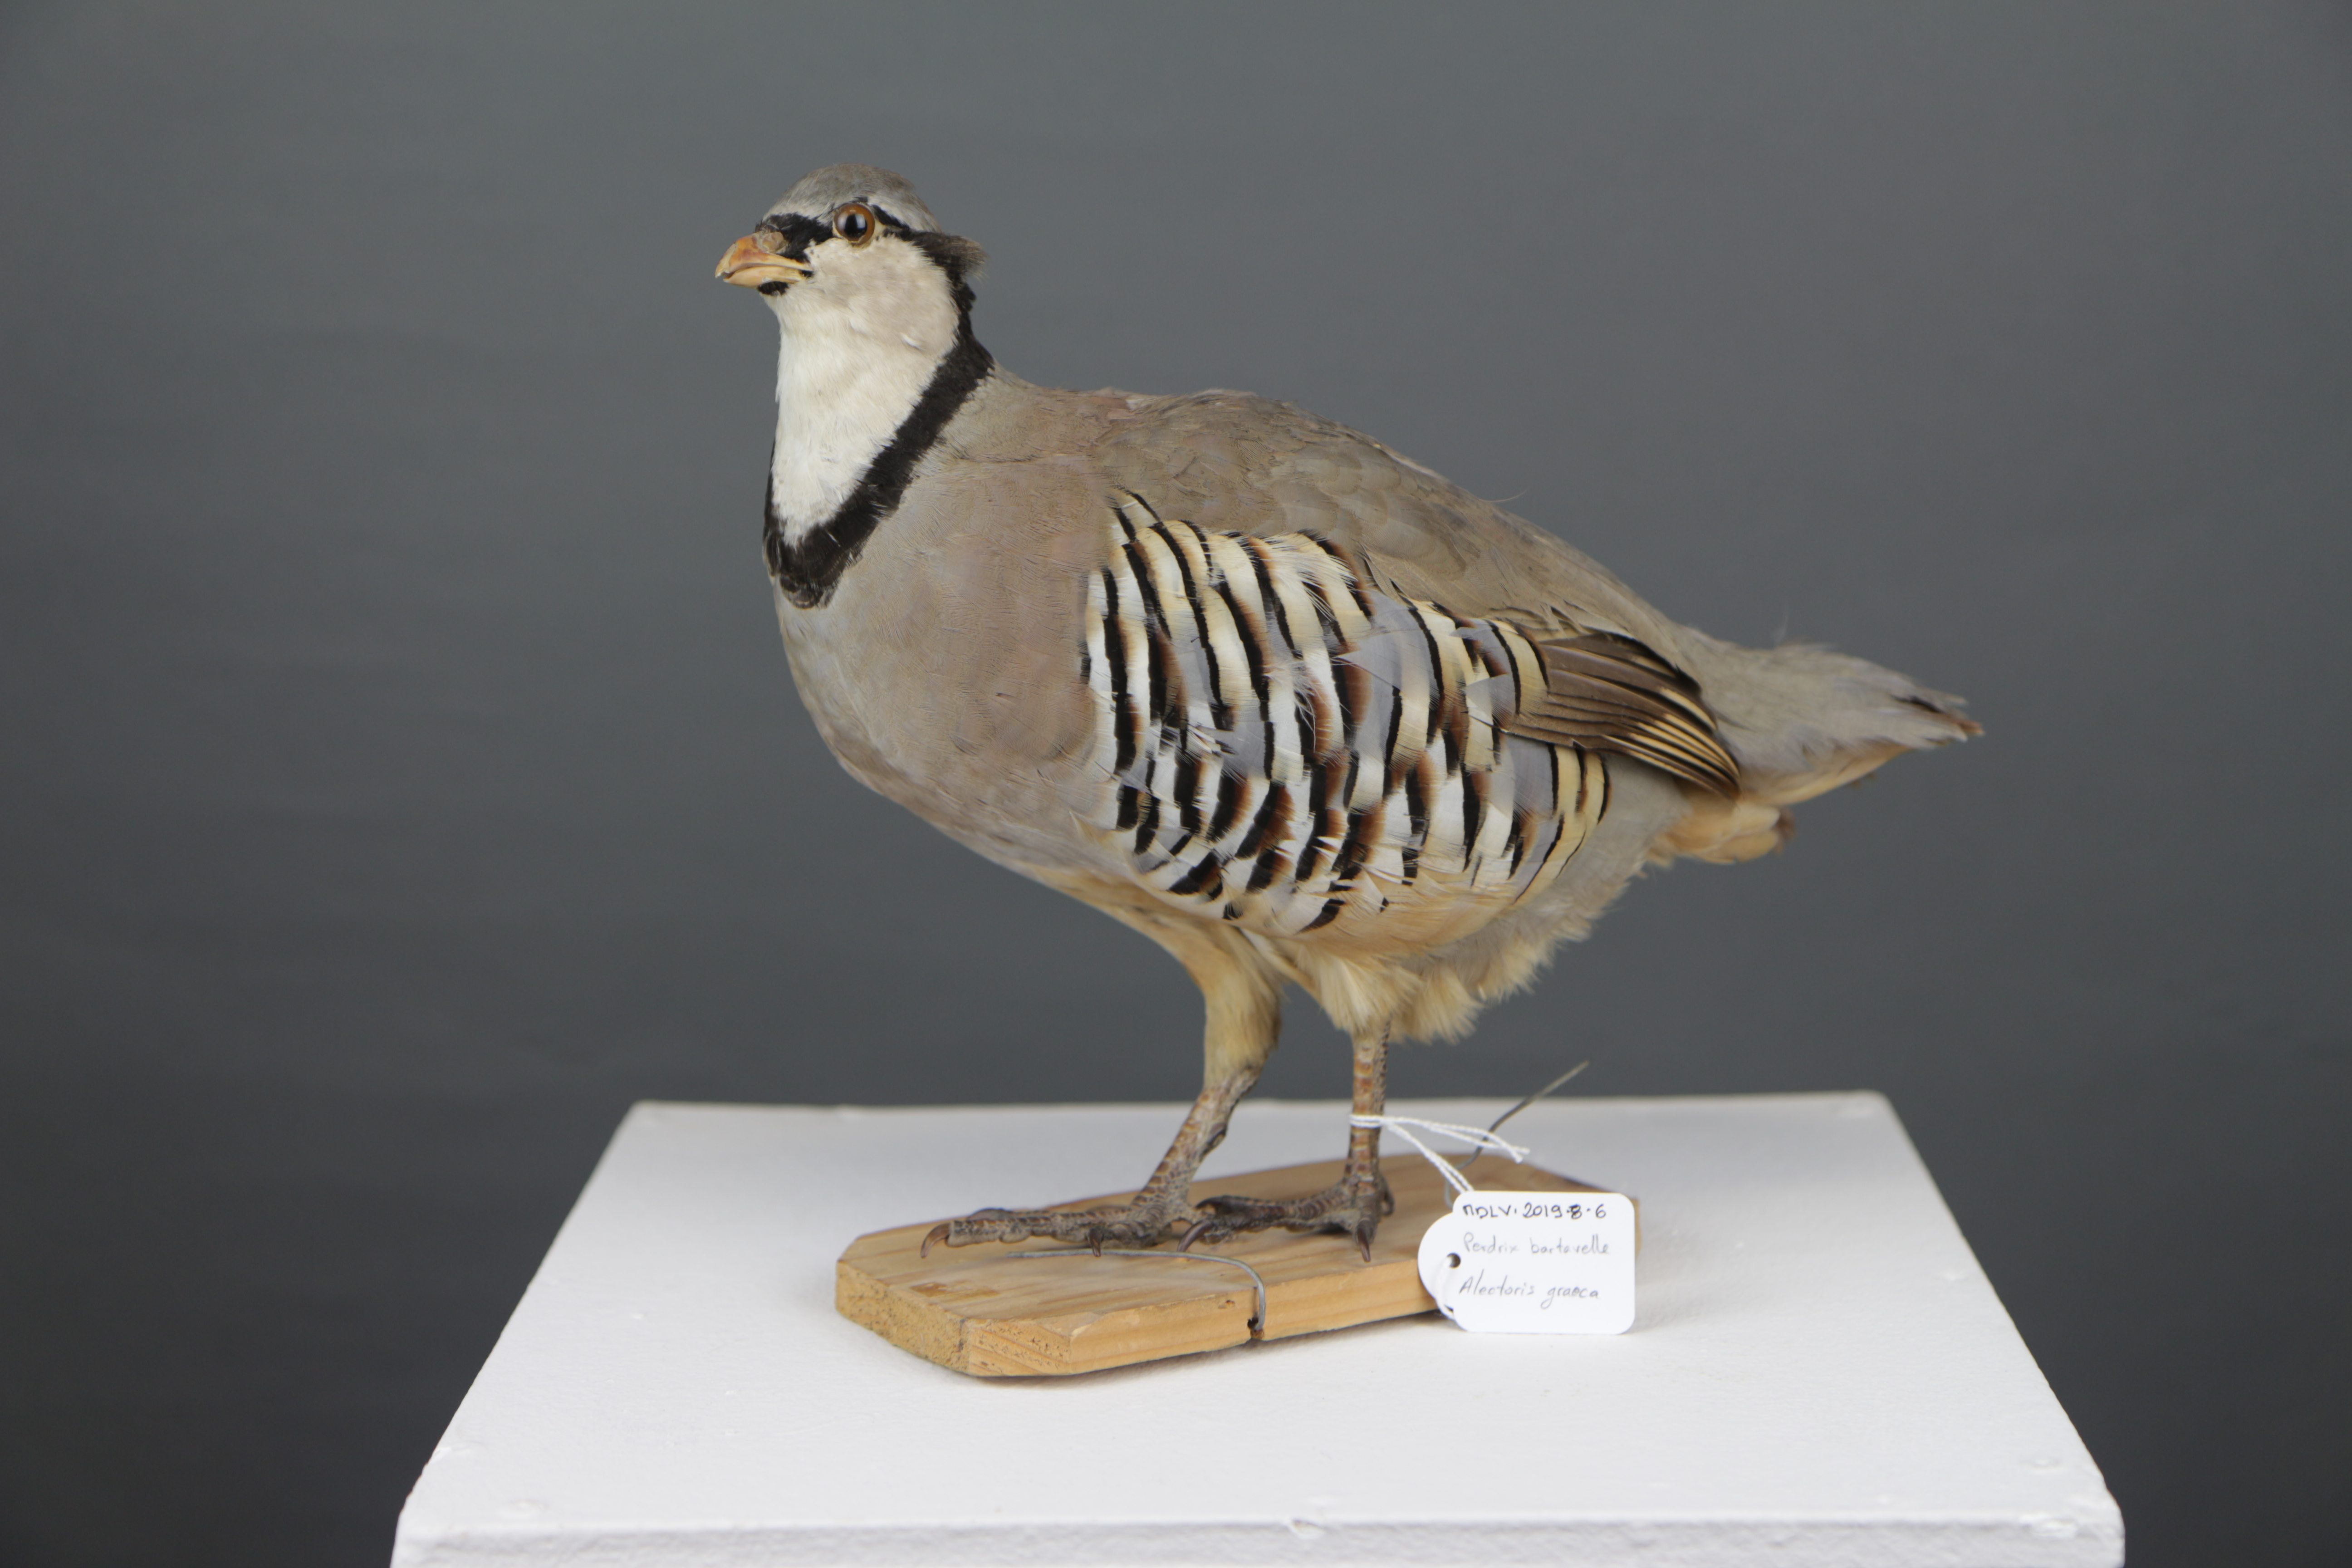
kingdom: Animalia
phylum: Chordata
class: Aves
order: Galliformes
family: Phasianidae
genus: Alectoris
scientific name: Alectoris graeca
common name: Rock partridge
